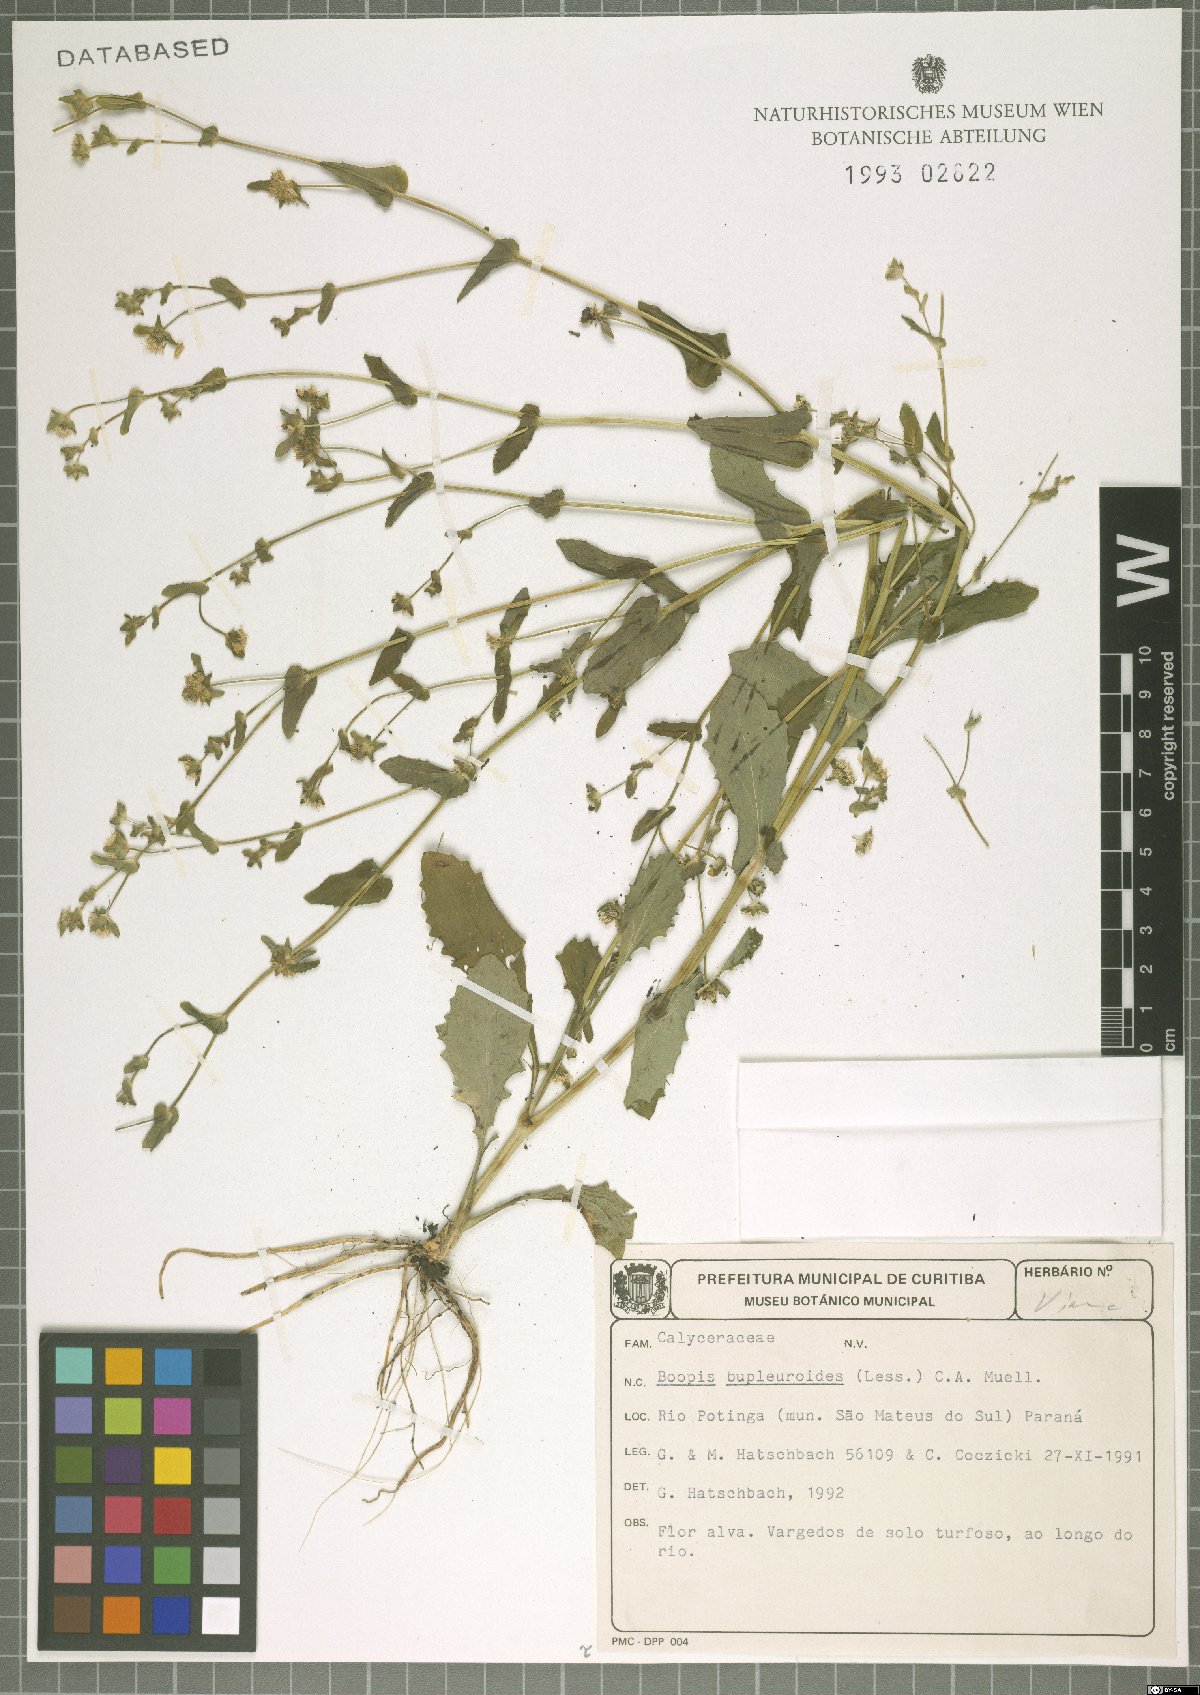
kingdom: Plantae
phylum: Tracheophyta
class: Magnoliopsida
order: Asterales
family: Calyceraceae
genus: Acicarpha
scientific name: Acicarpha bupleuroides
